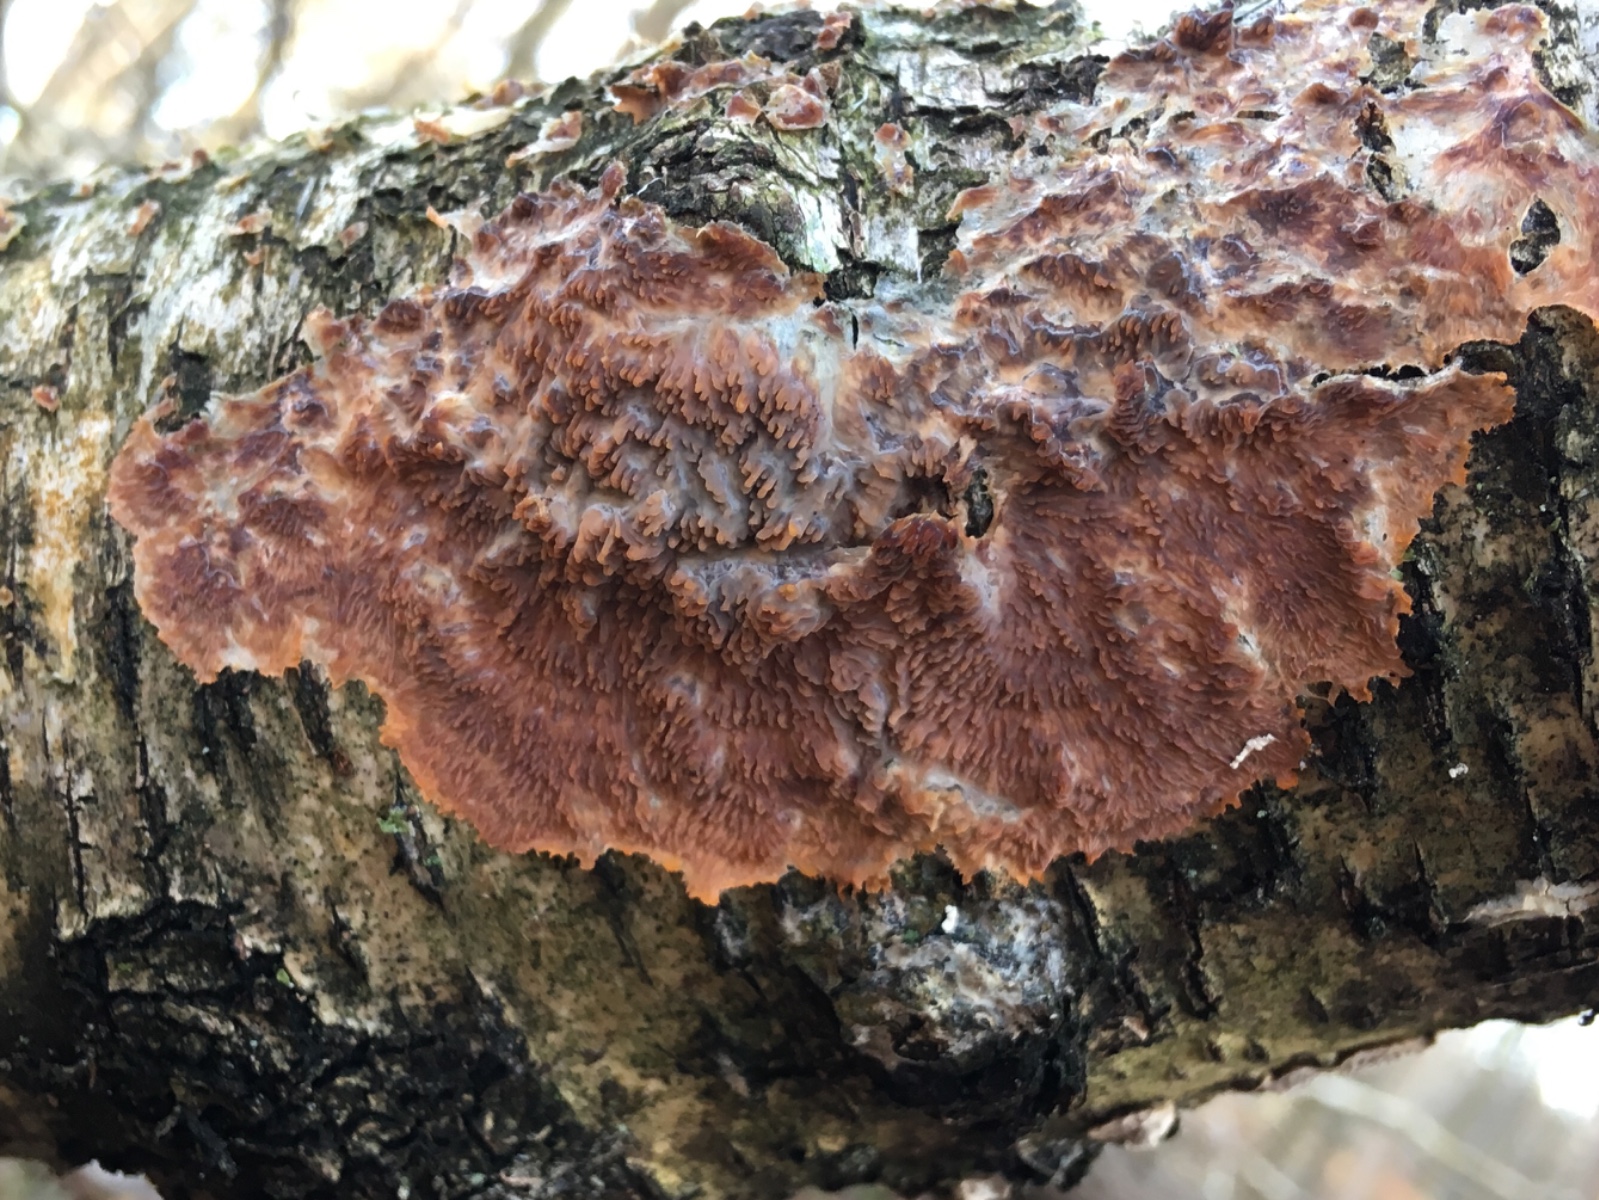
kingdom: Fungi
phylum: Basidiomycota
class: Agaricomycetes
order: Polyporales
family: Meruliaceae
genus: Phlebia
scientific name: Phlebia radiata
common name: stråle-åresvamp
